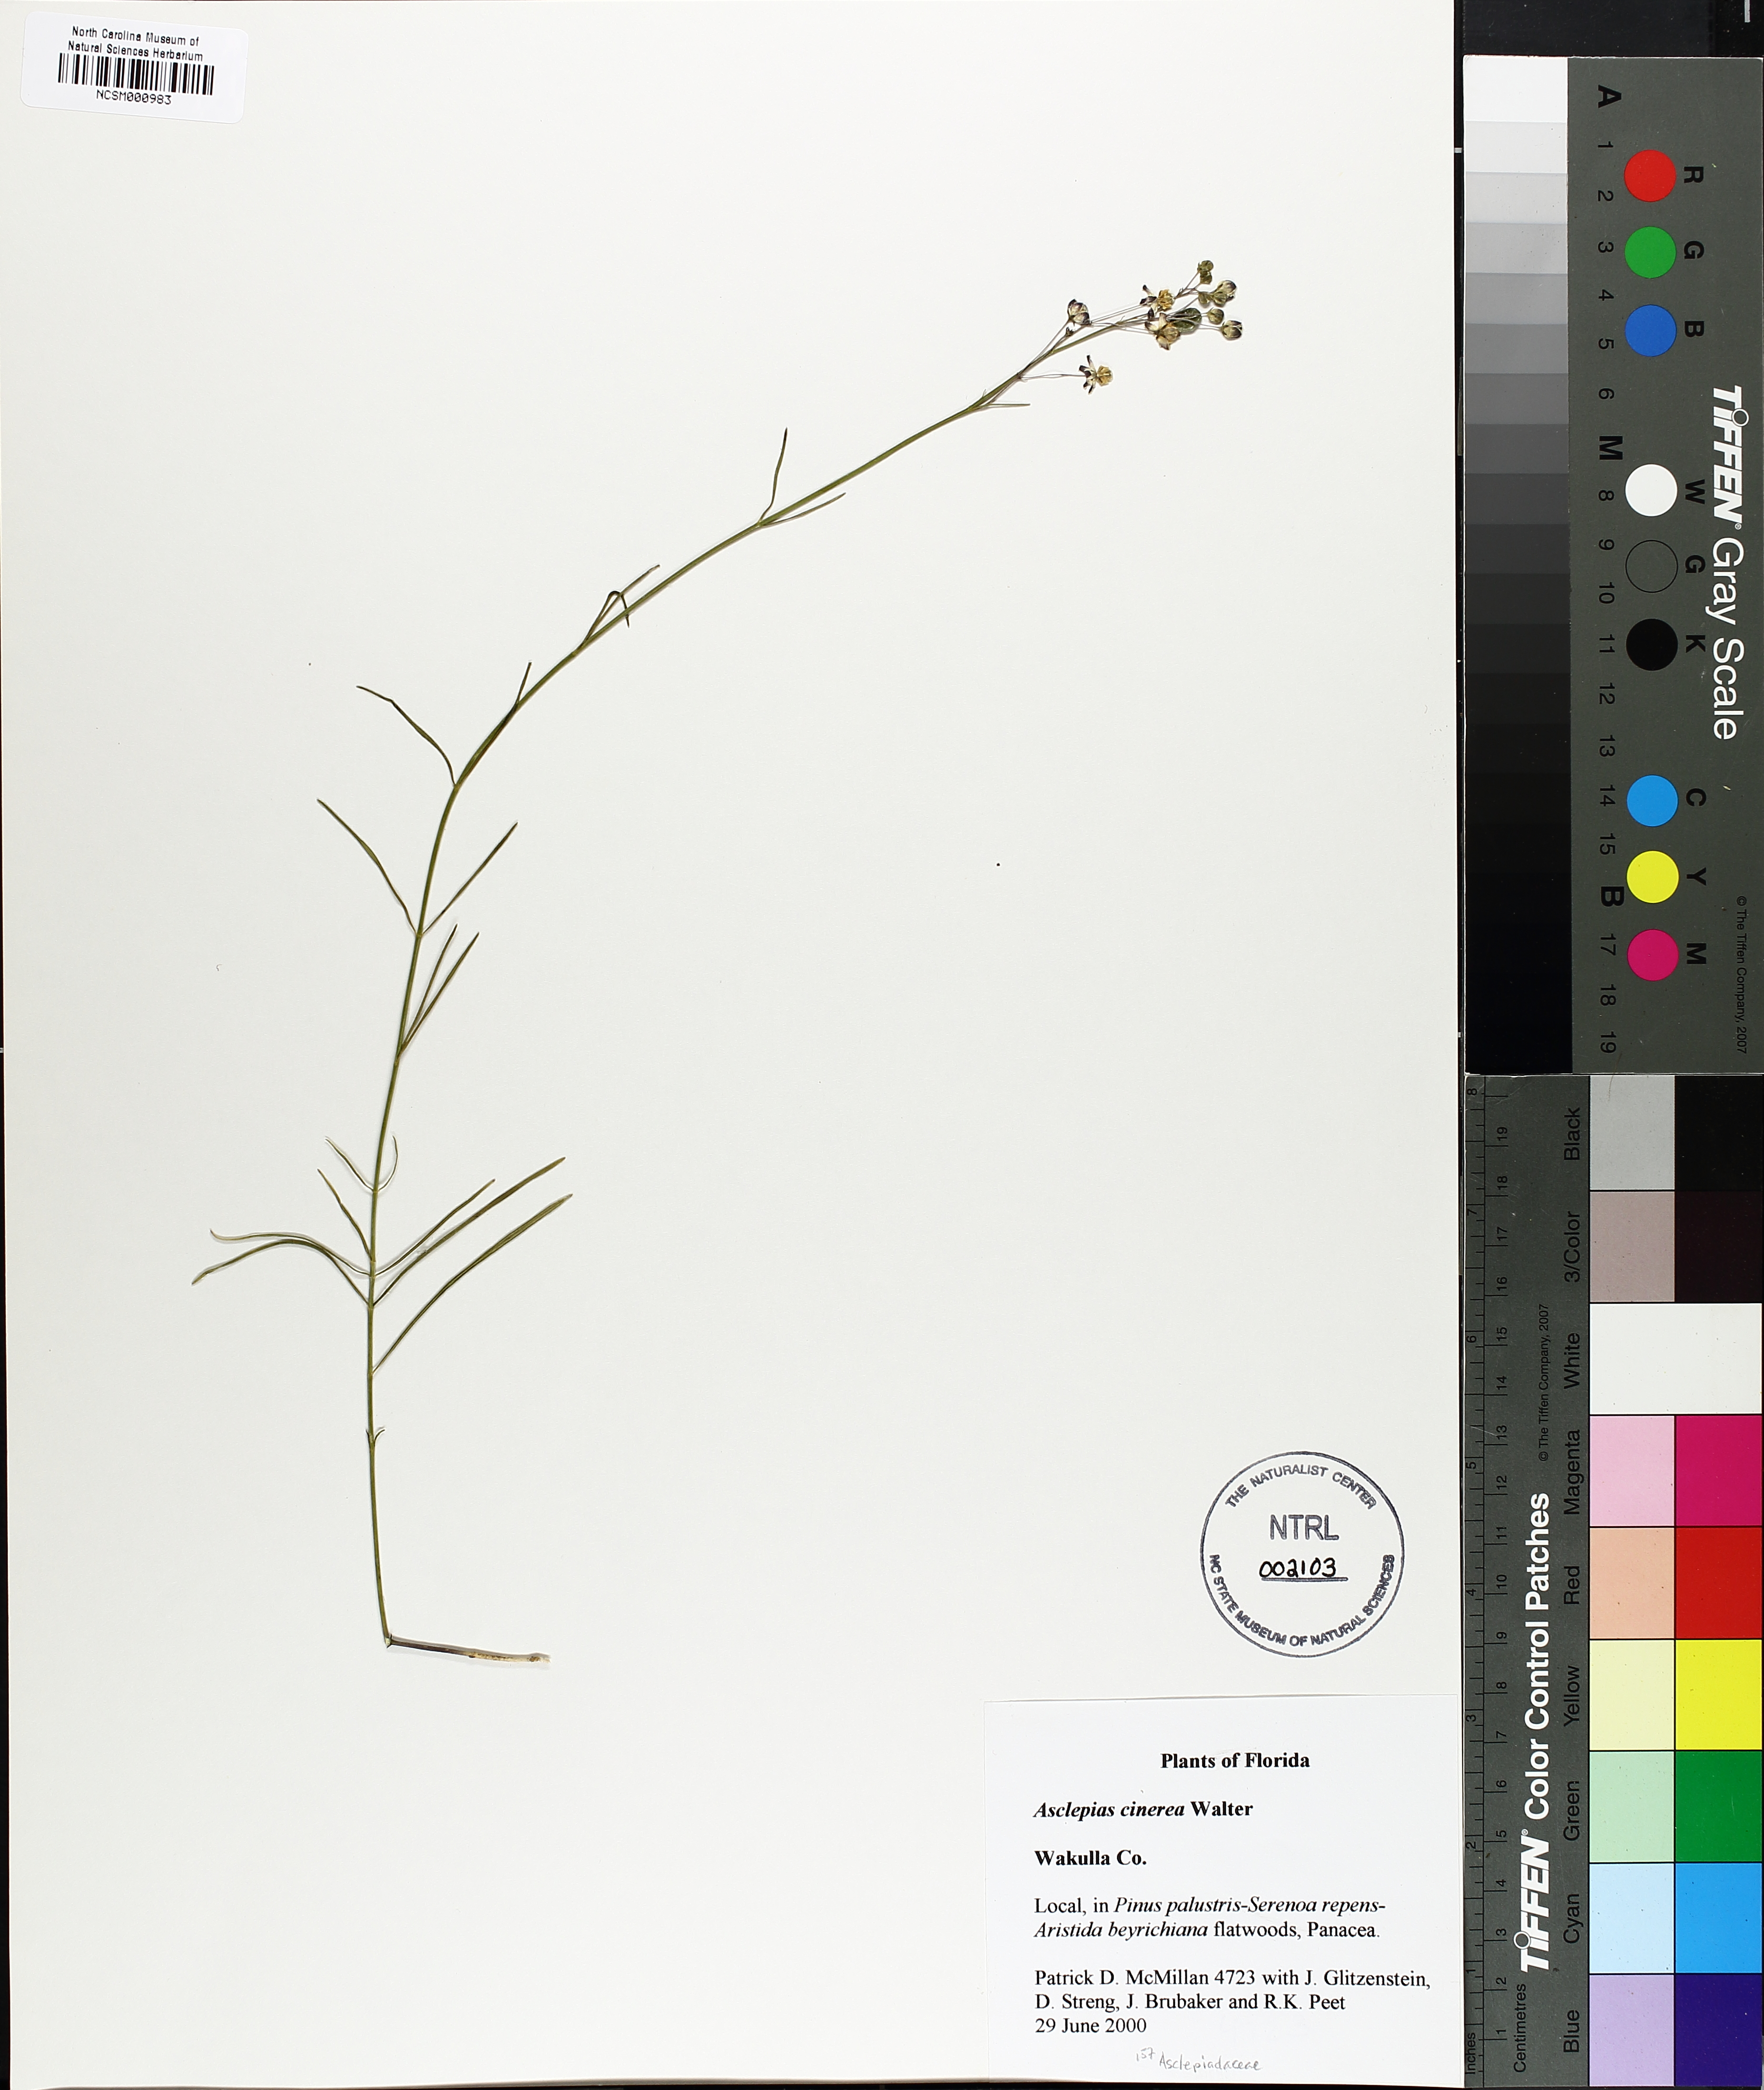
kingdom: Plantae
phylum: Tracheophyta
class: Magnoliopsida
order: Gentianales
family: Apocynaceae
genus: Asclepias
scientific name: Asclepias cinerea
